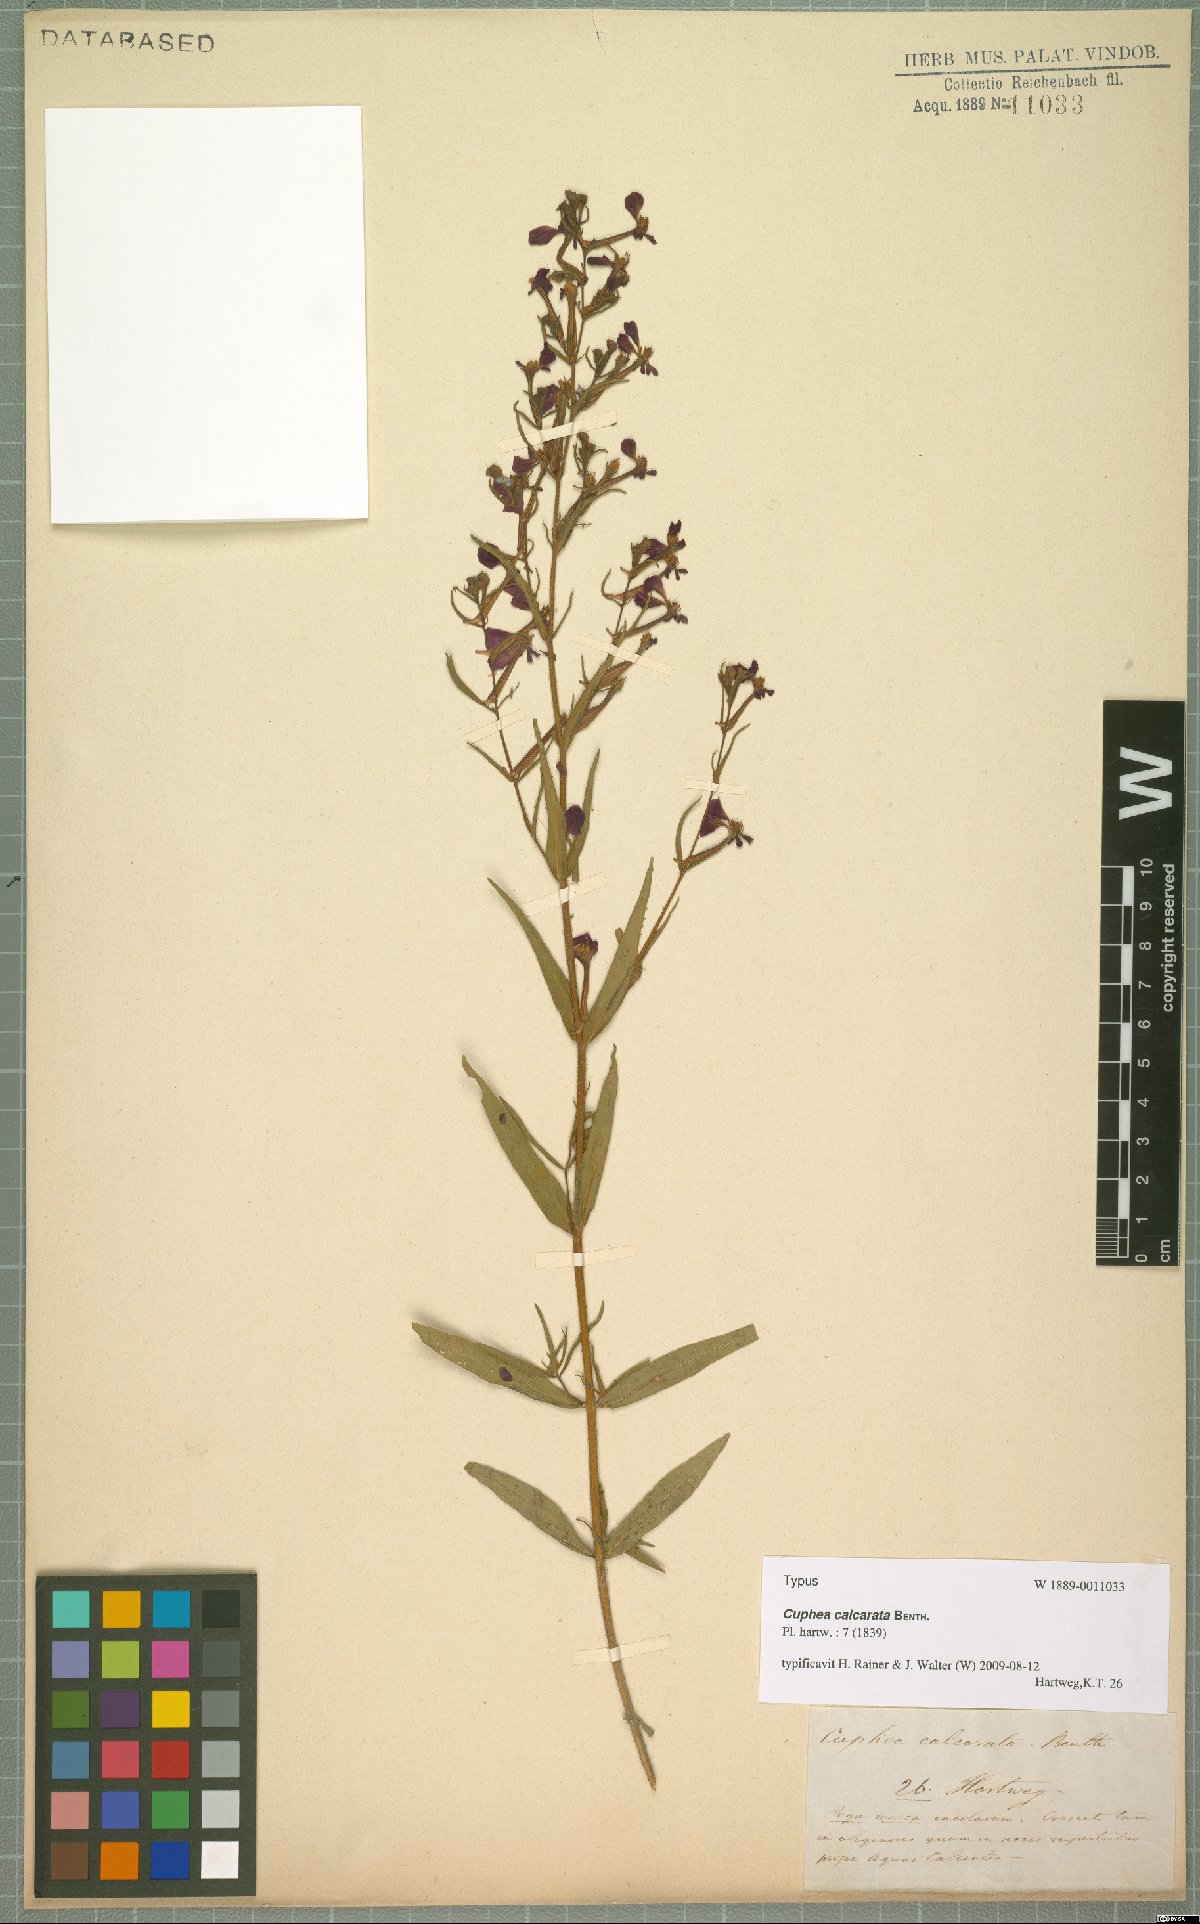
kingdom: Plantae
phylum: Tracheophyta
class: Magnoliopsida
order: Myrtales
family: Lythraceae
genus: Cuphea
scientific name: Cuphea calcarata
